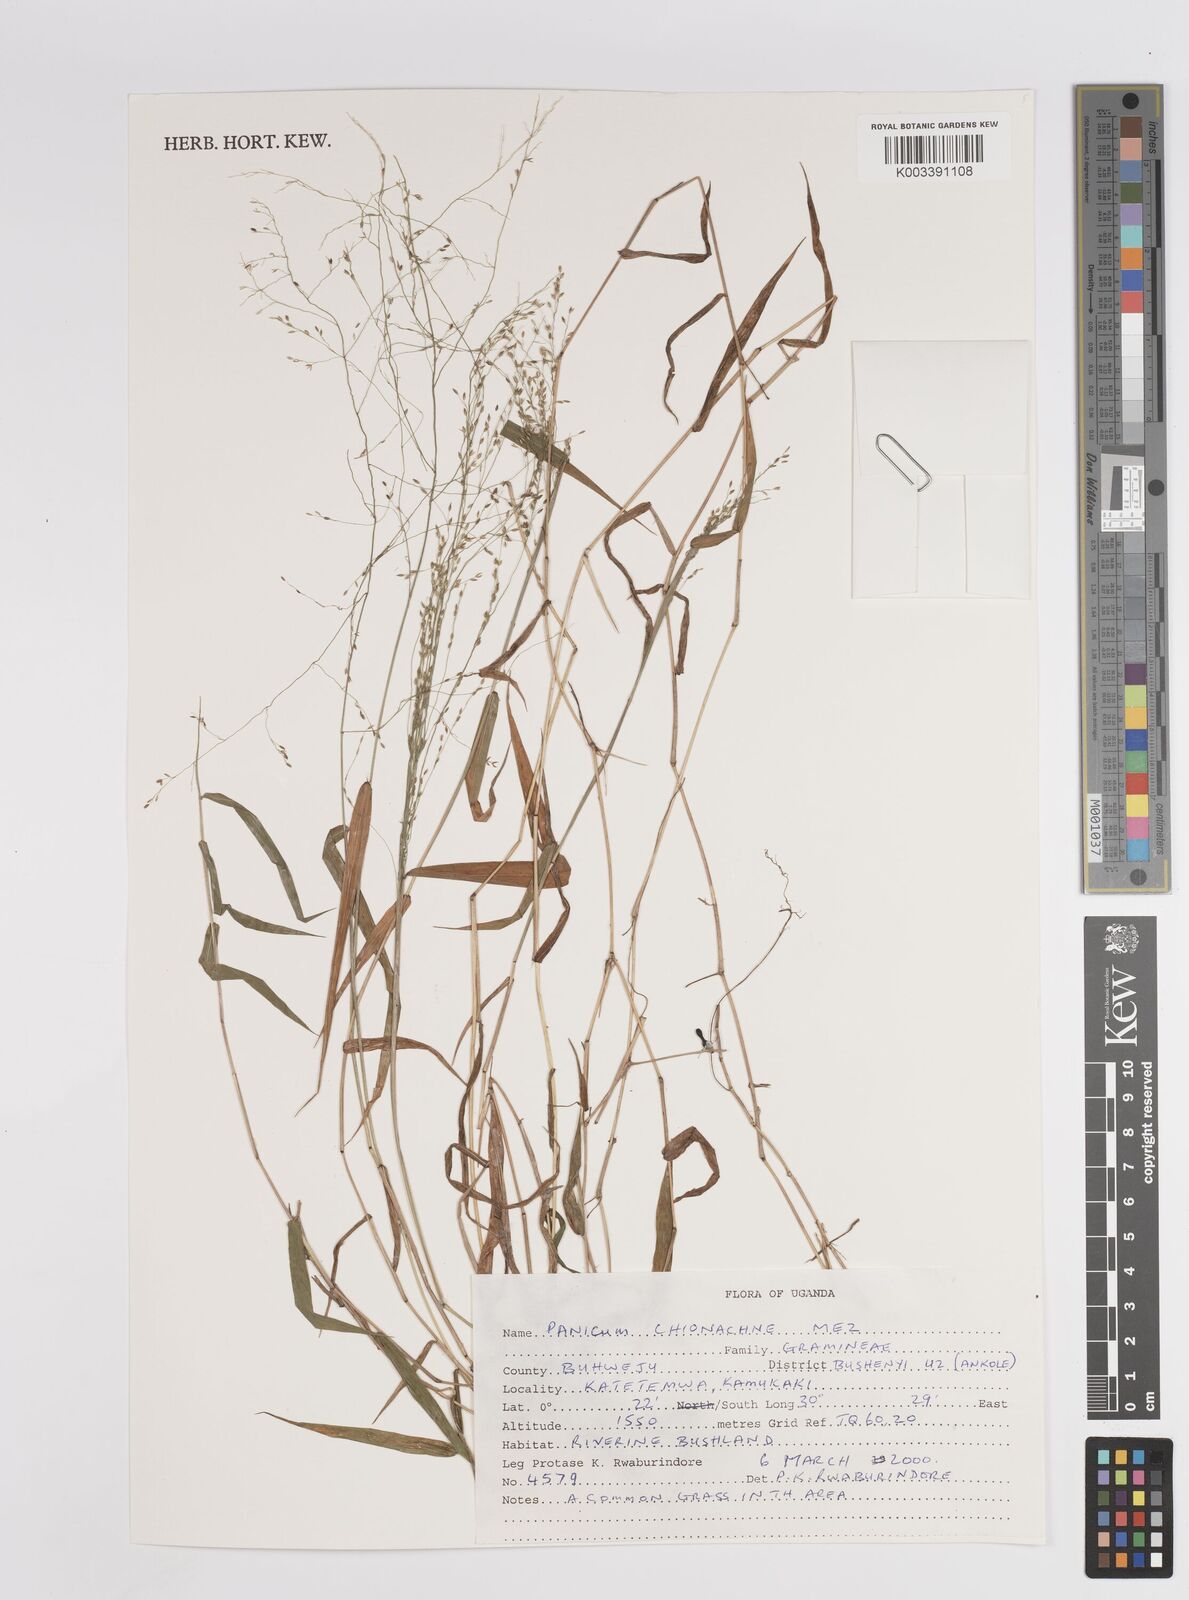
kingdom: Plantae
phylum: Tracheophyta
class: Liliopsida
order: Poales
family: Poaceae
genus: Panicum
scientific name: Panicum chionachne
